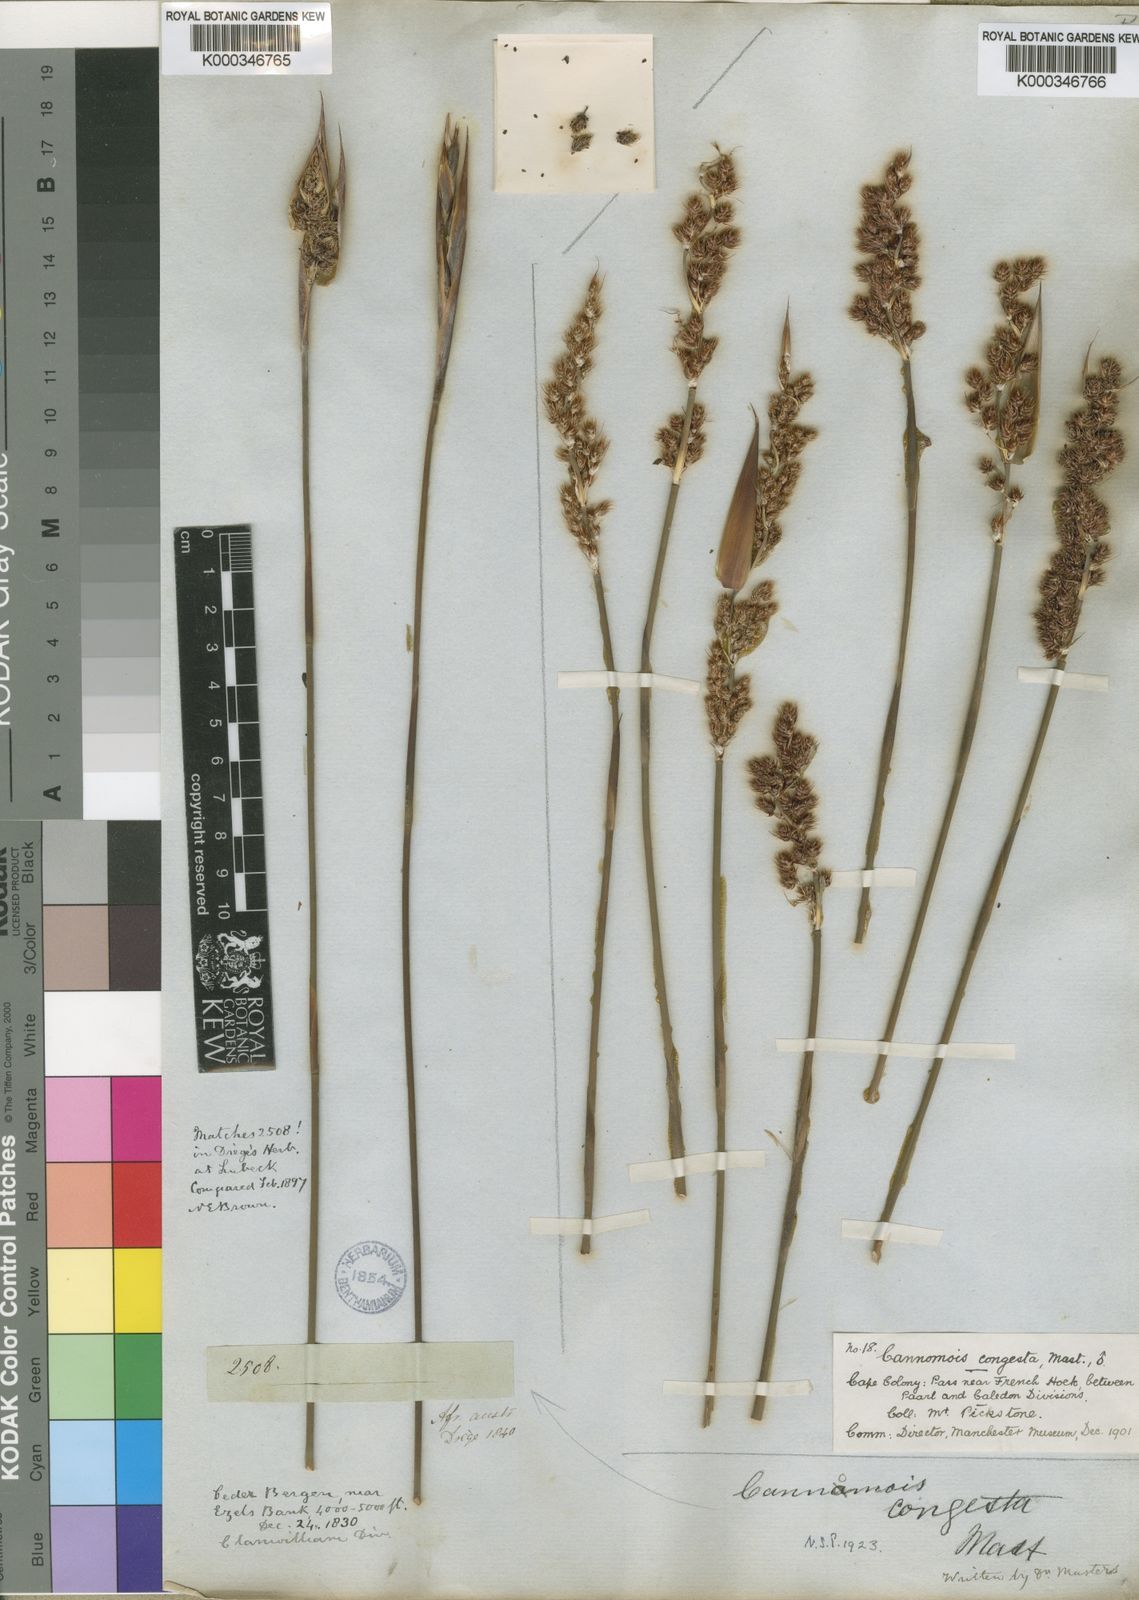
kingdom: Plantae
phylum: Tracheophyta
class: Liliopsida
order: Poales
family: Restionaceae
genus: Cannomois
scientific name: Cannomois congesta
